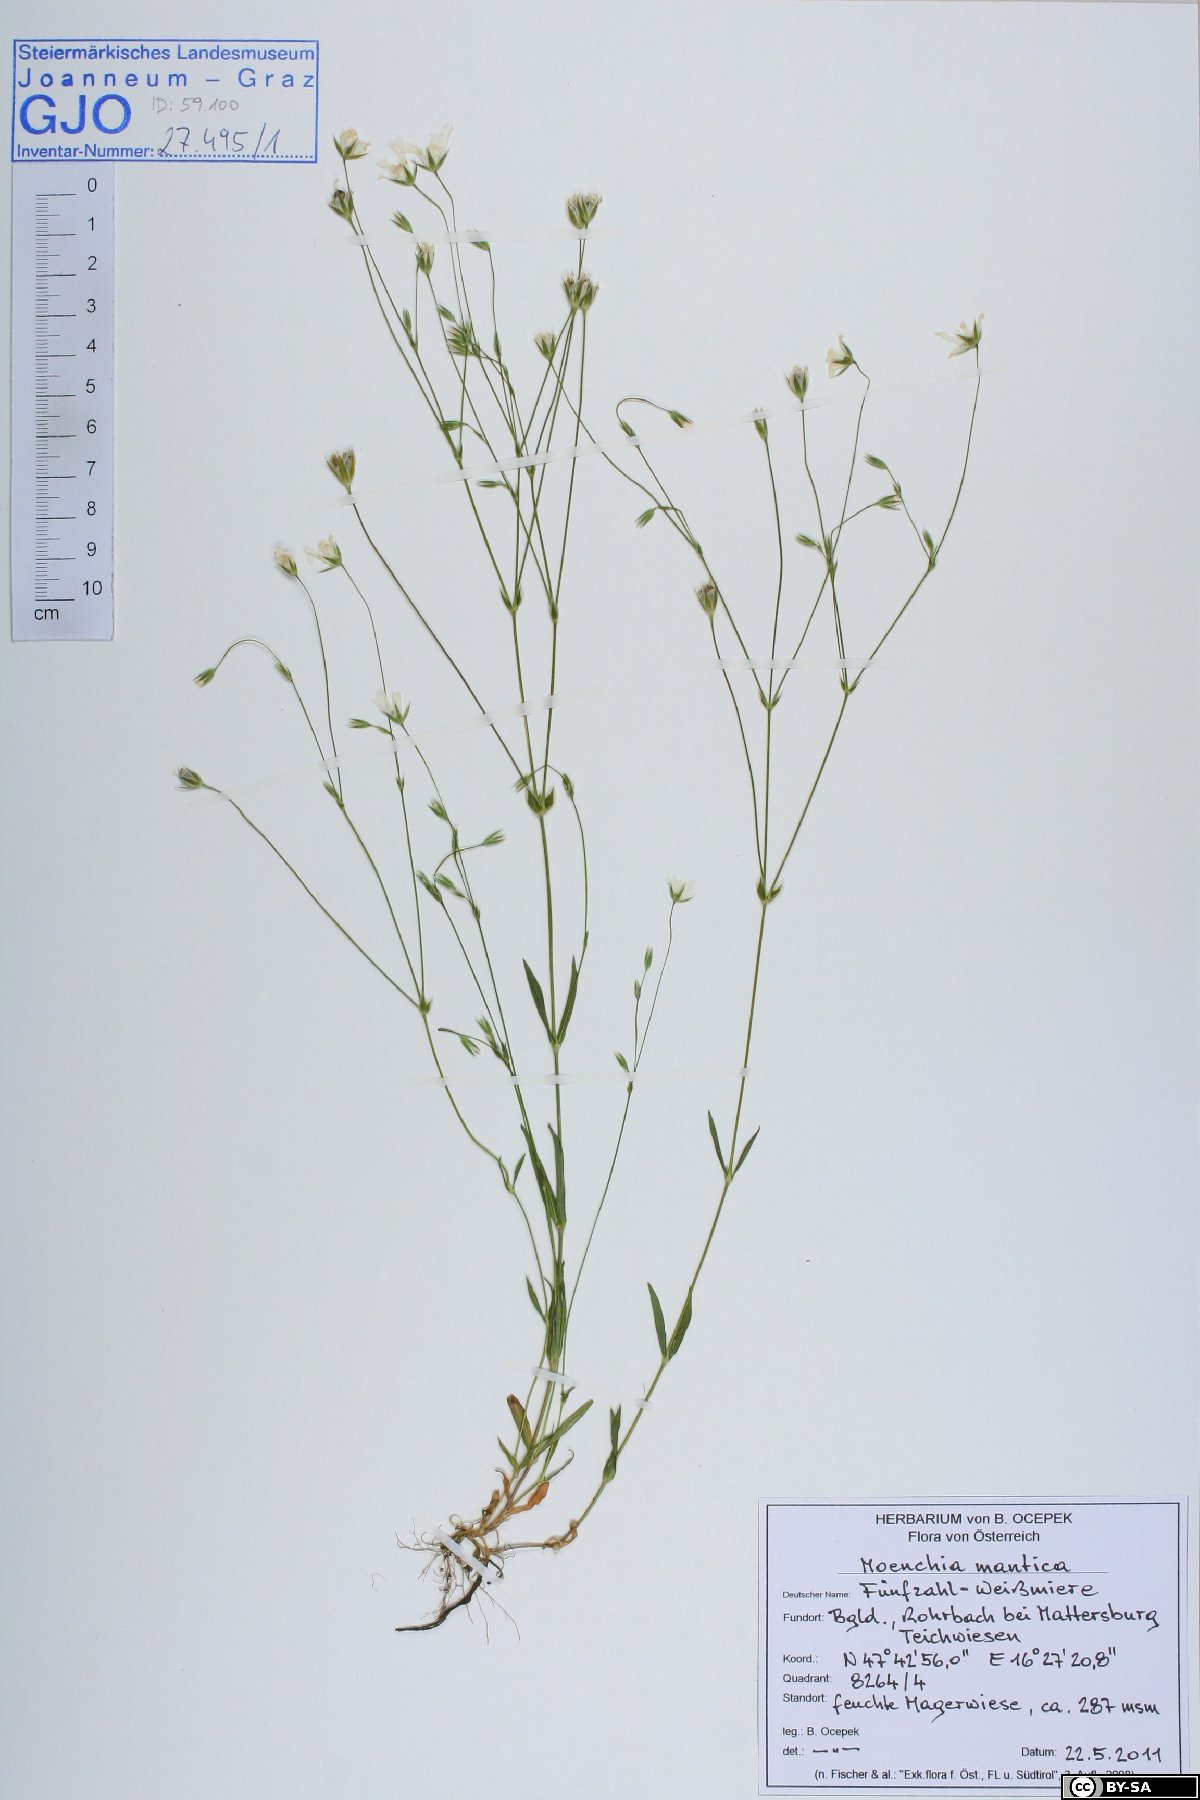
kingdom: Plantae
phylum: Tracheophyta
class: Magnoliopsida
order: Caryophyllales
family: Caryophyllaceae
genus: Moenchia
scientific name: Moenchia mantica
